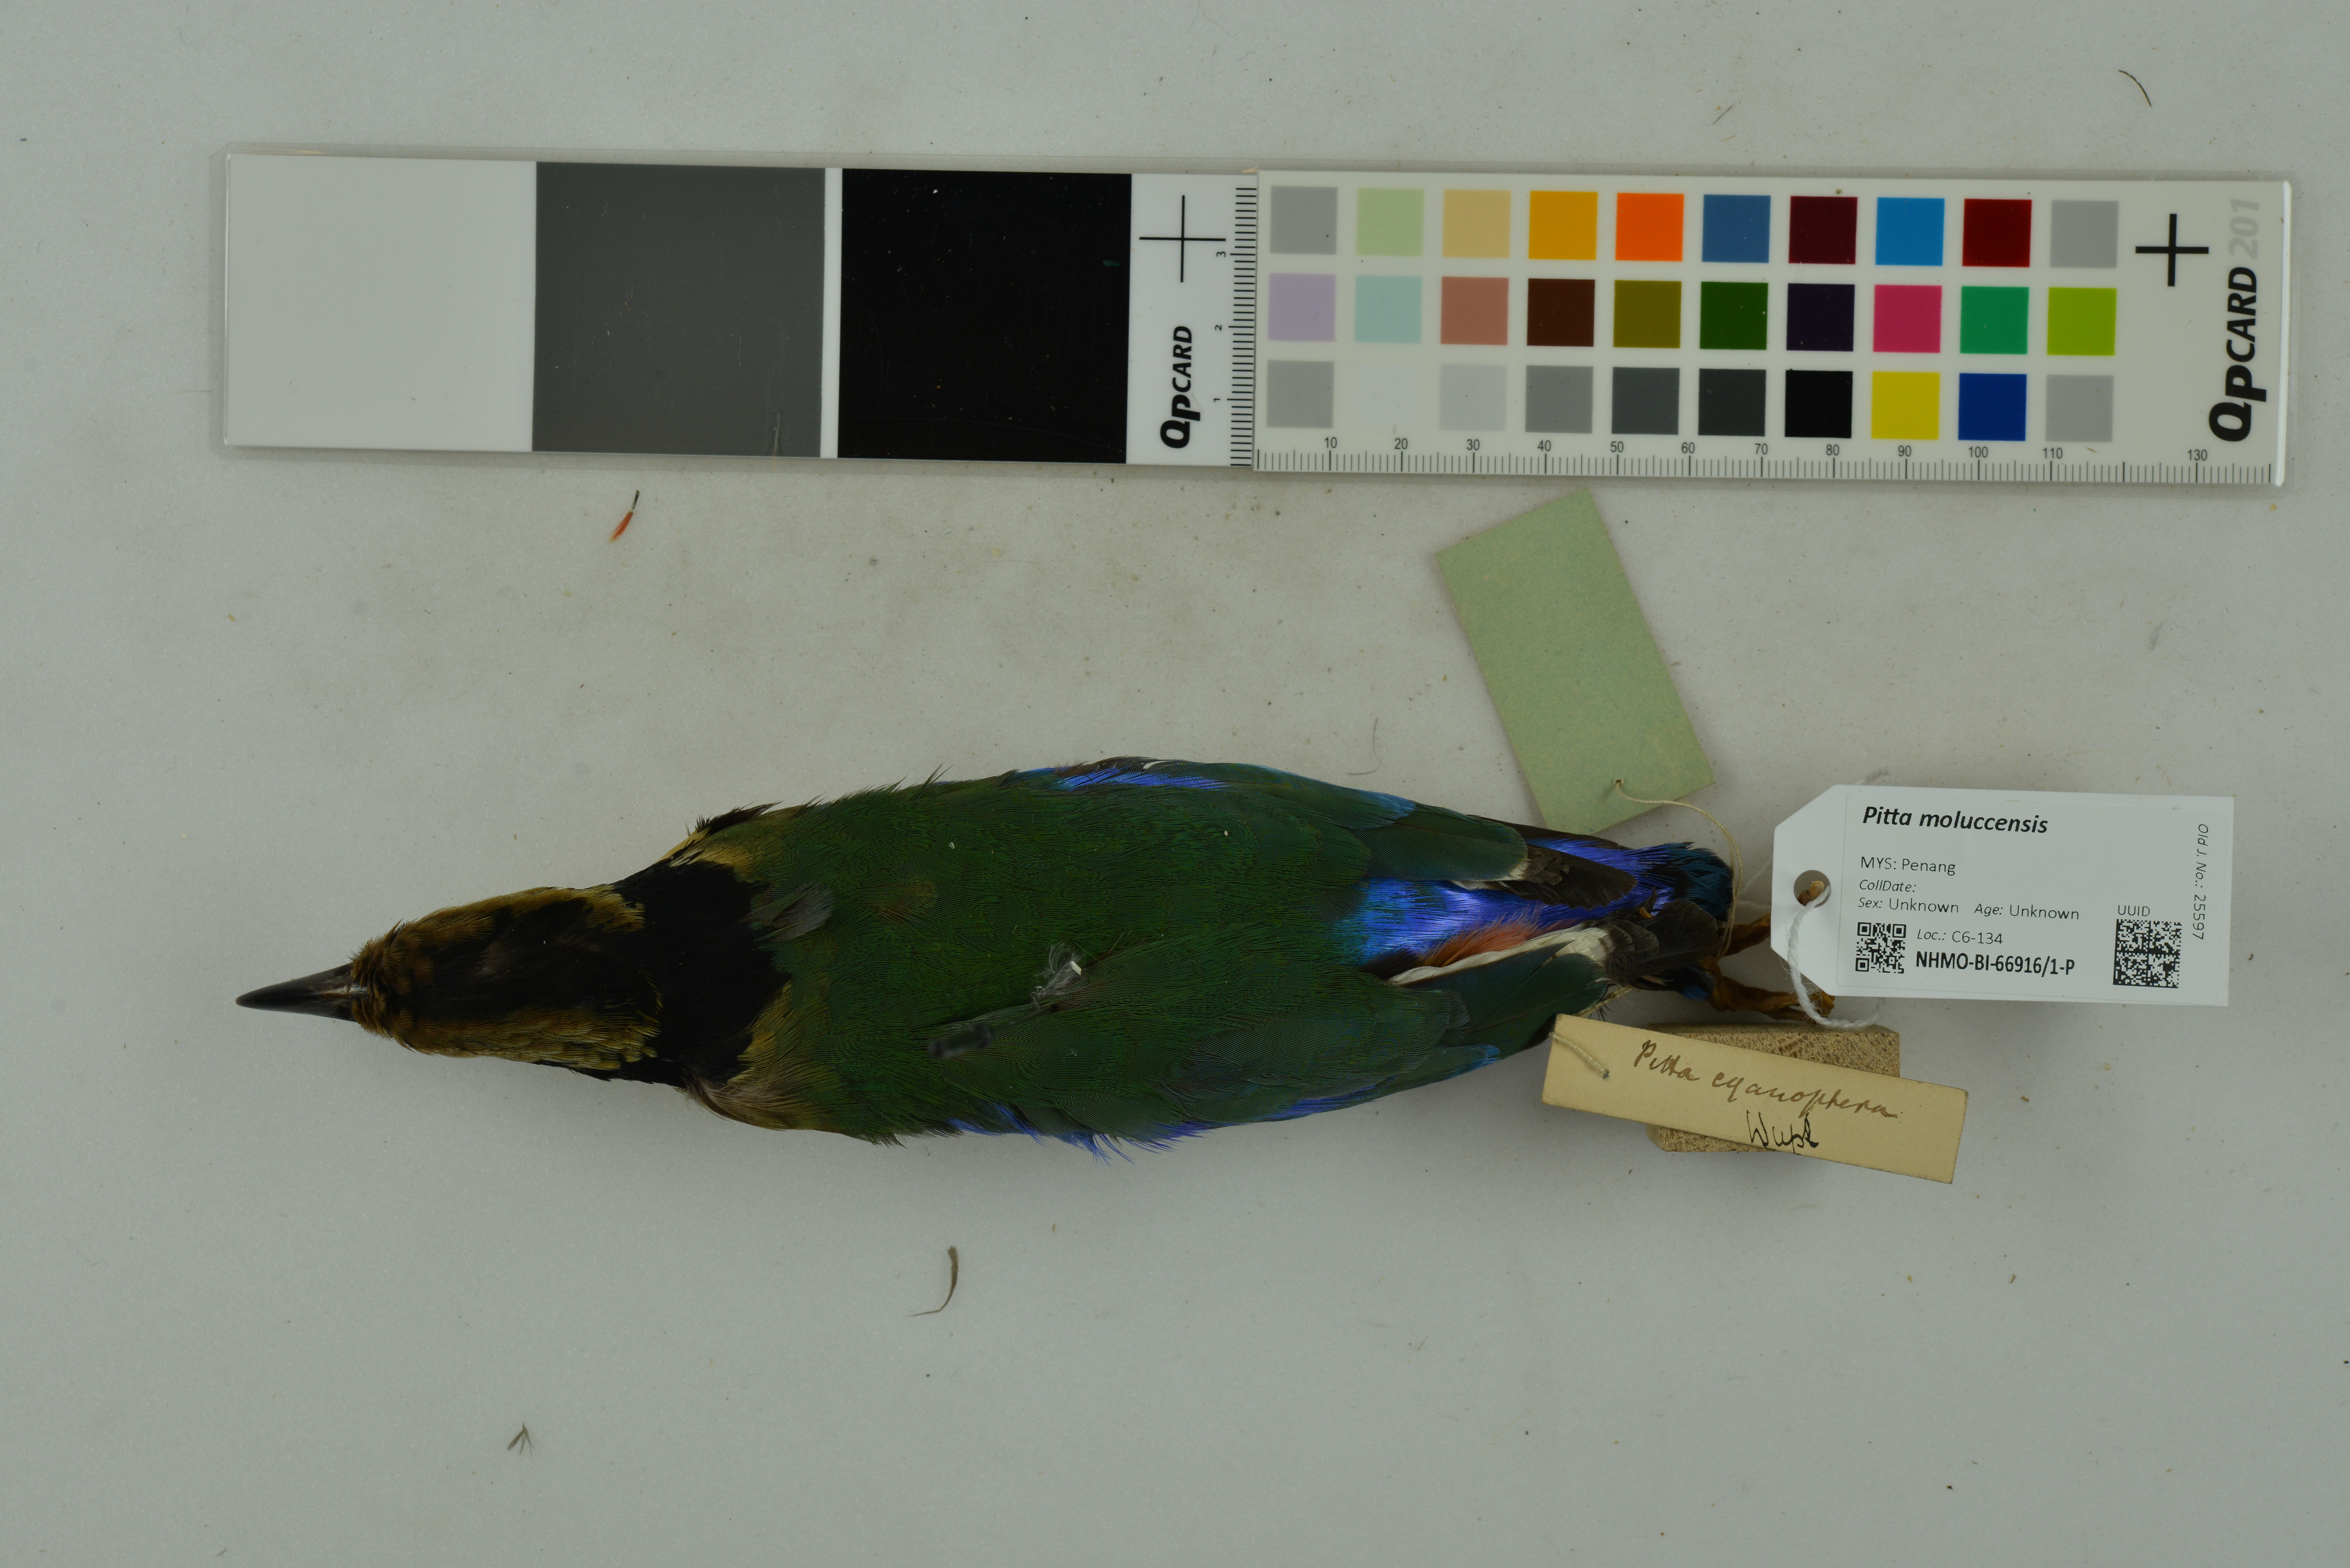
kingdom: Animalia
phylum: Chordata
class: Aves
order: Passeriformes
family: Pittidae
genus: Pitta
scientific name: Pitta moluccensis
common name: Blue-winged pitta
